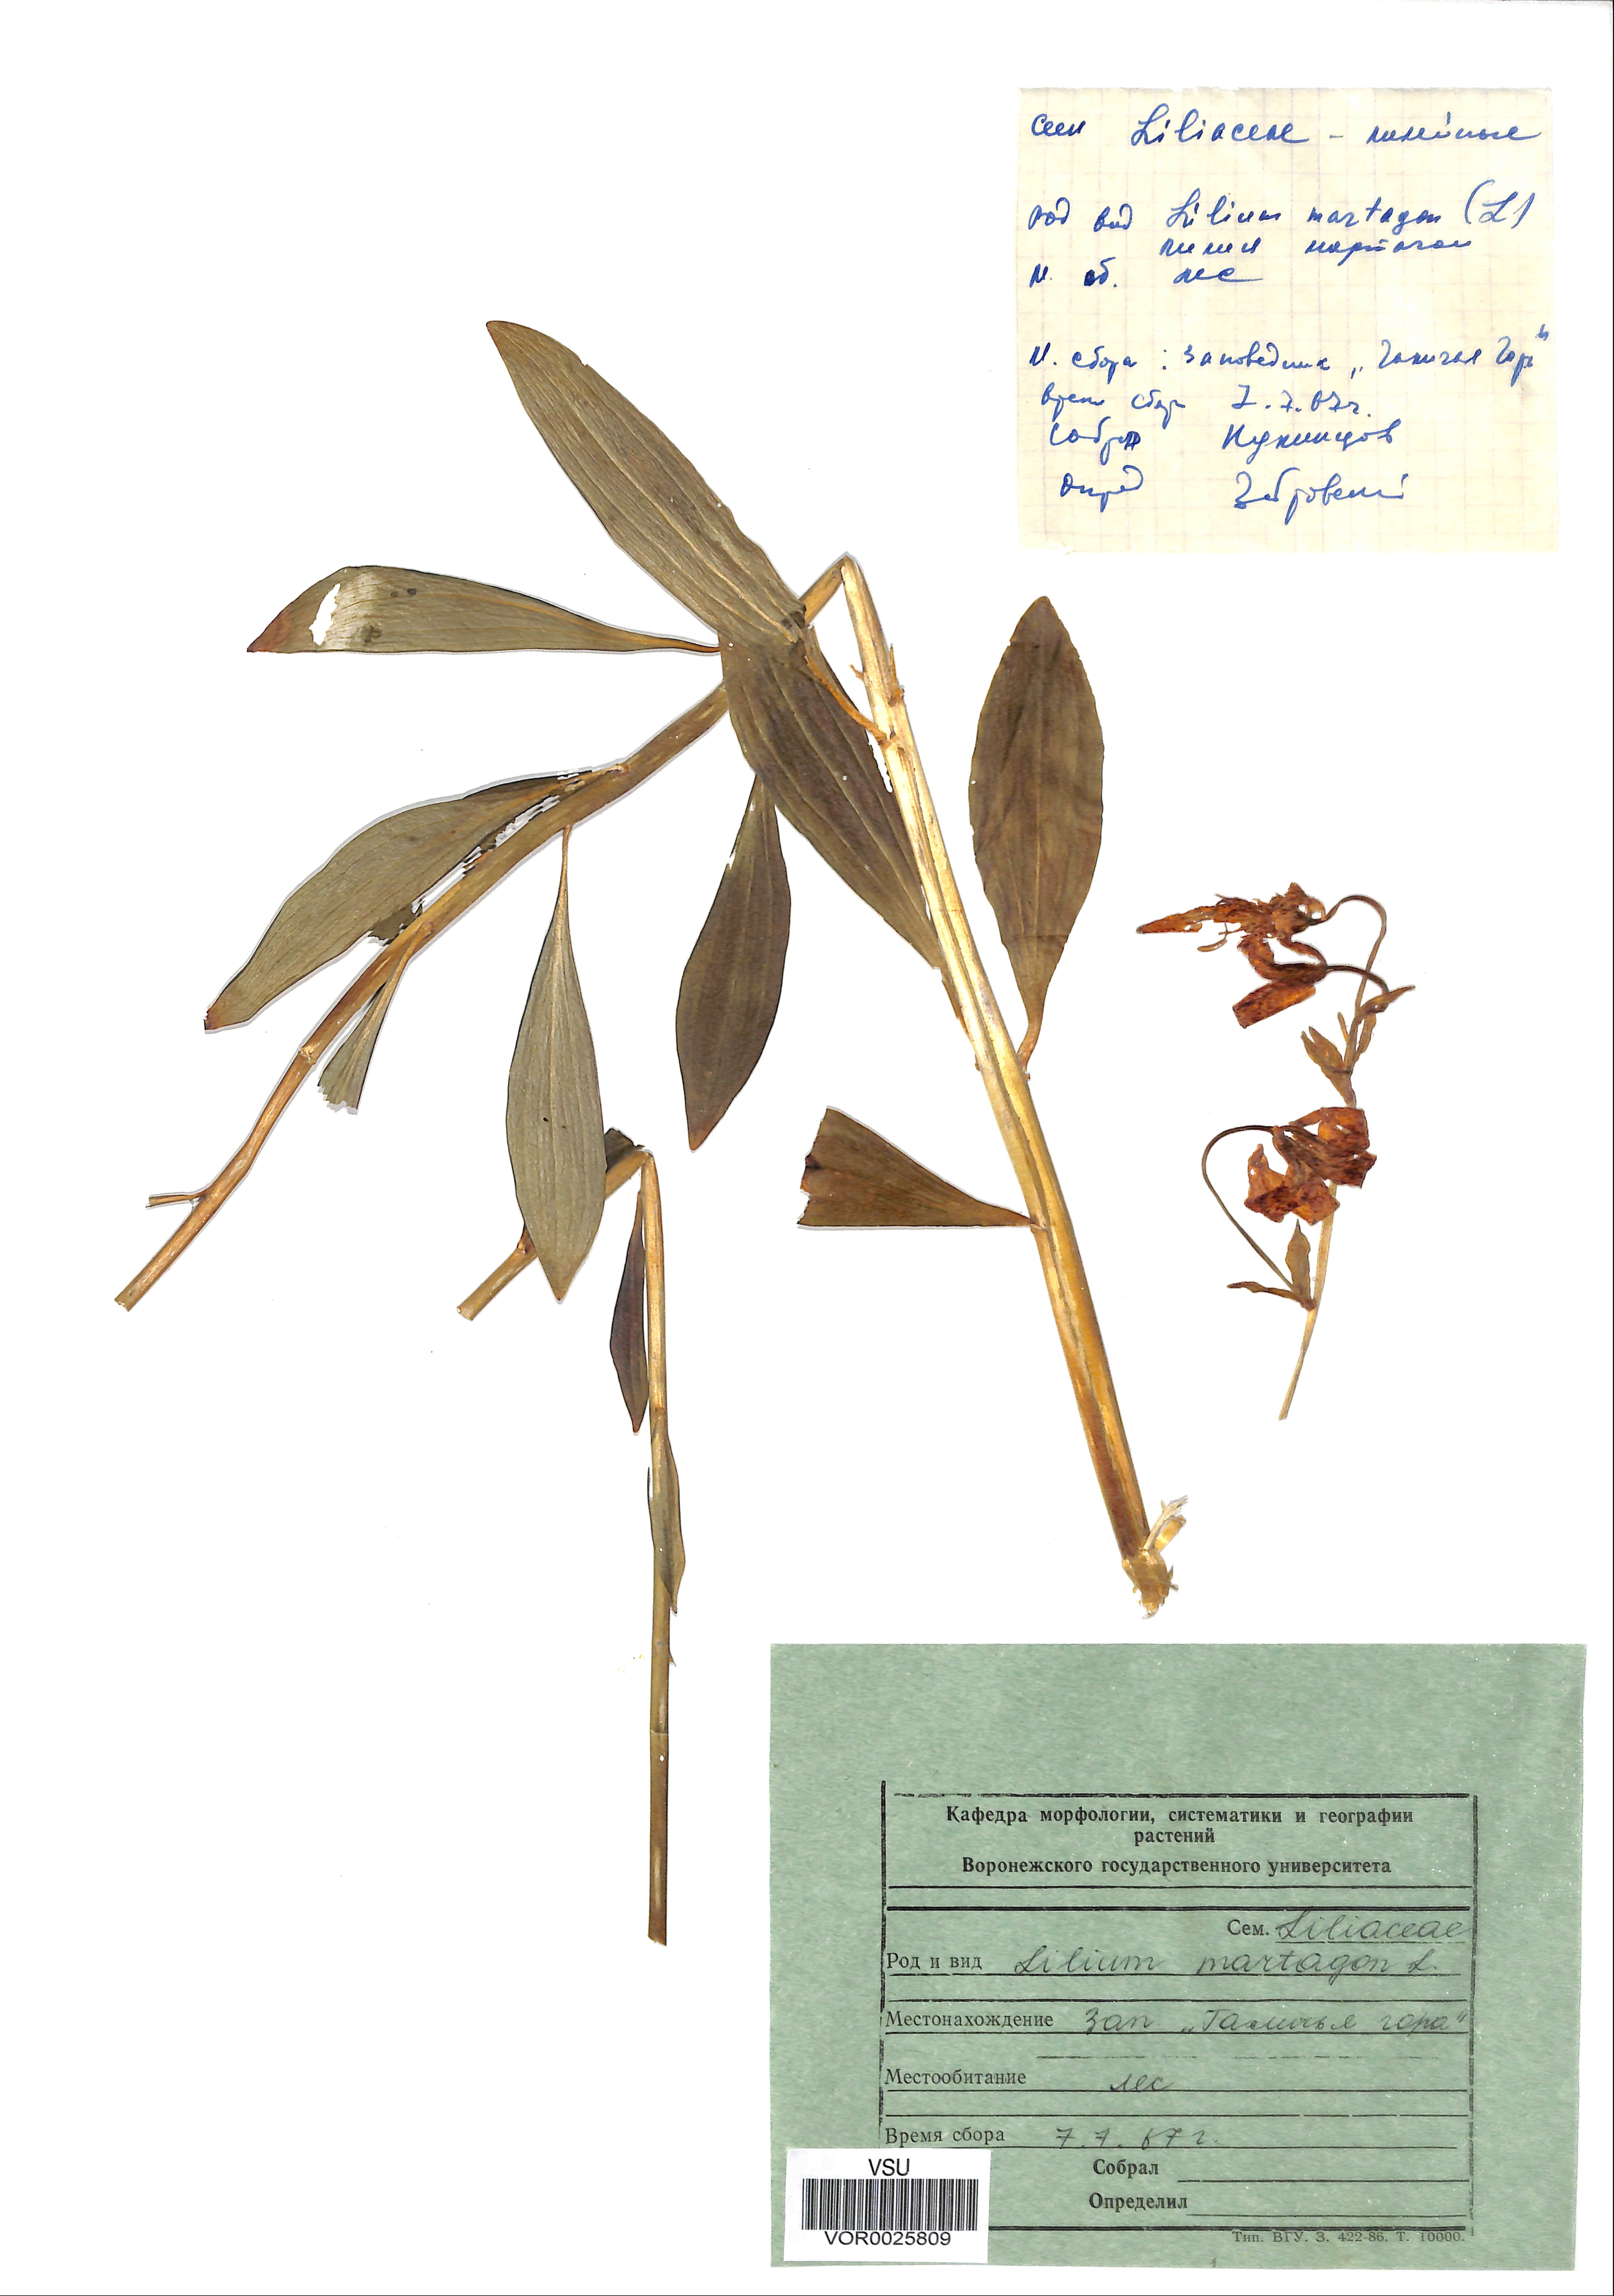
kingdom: Plantae
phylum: Tracheophyta
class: Liliopsida
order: Liliales
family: Liliaceae
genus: Lilium
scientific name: Lilium martagon
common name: Martagon lily
